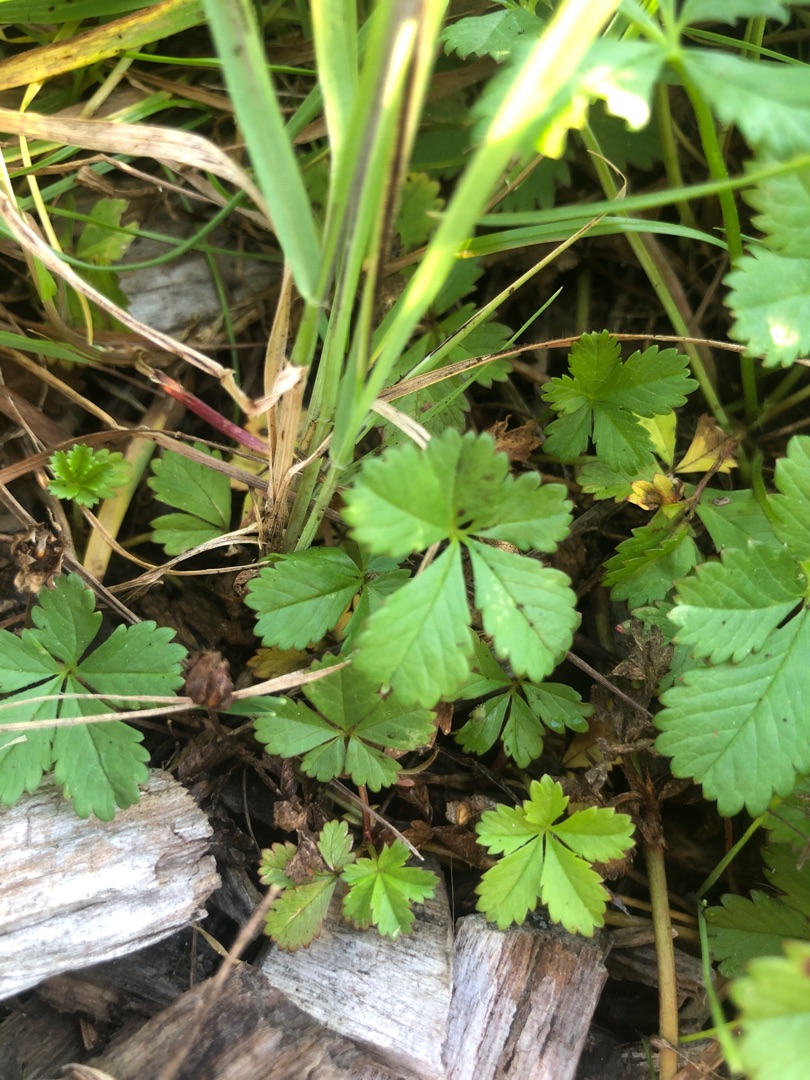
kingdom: Plantae
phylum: Tracheophyta
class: Magnoliopsida
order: Rosales
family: Rosaceae
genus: Potentilla
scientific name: Potentilla reptans
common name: Krybende potentil
